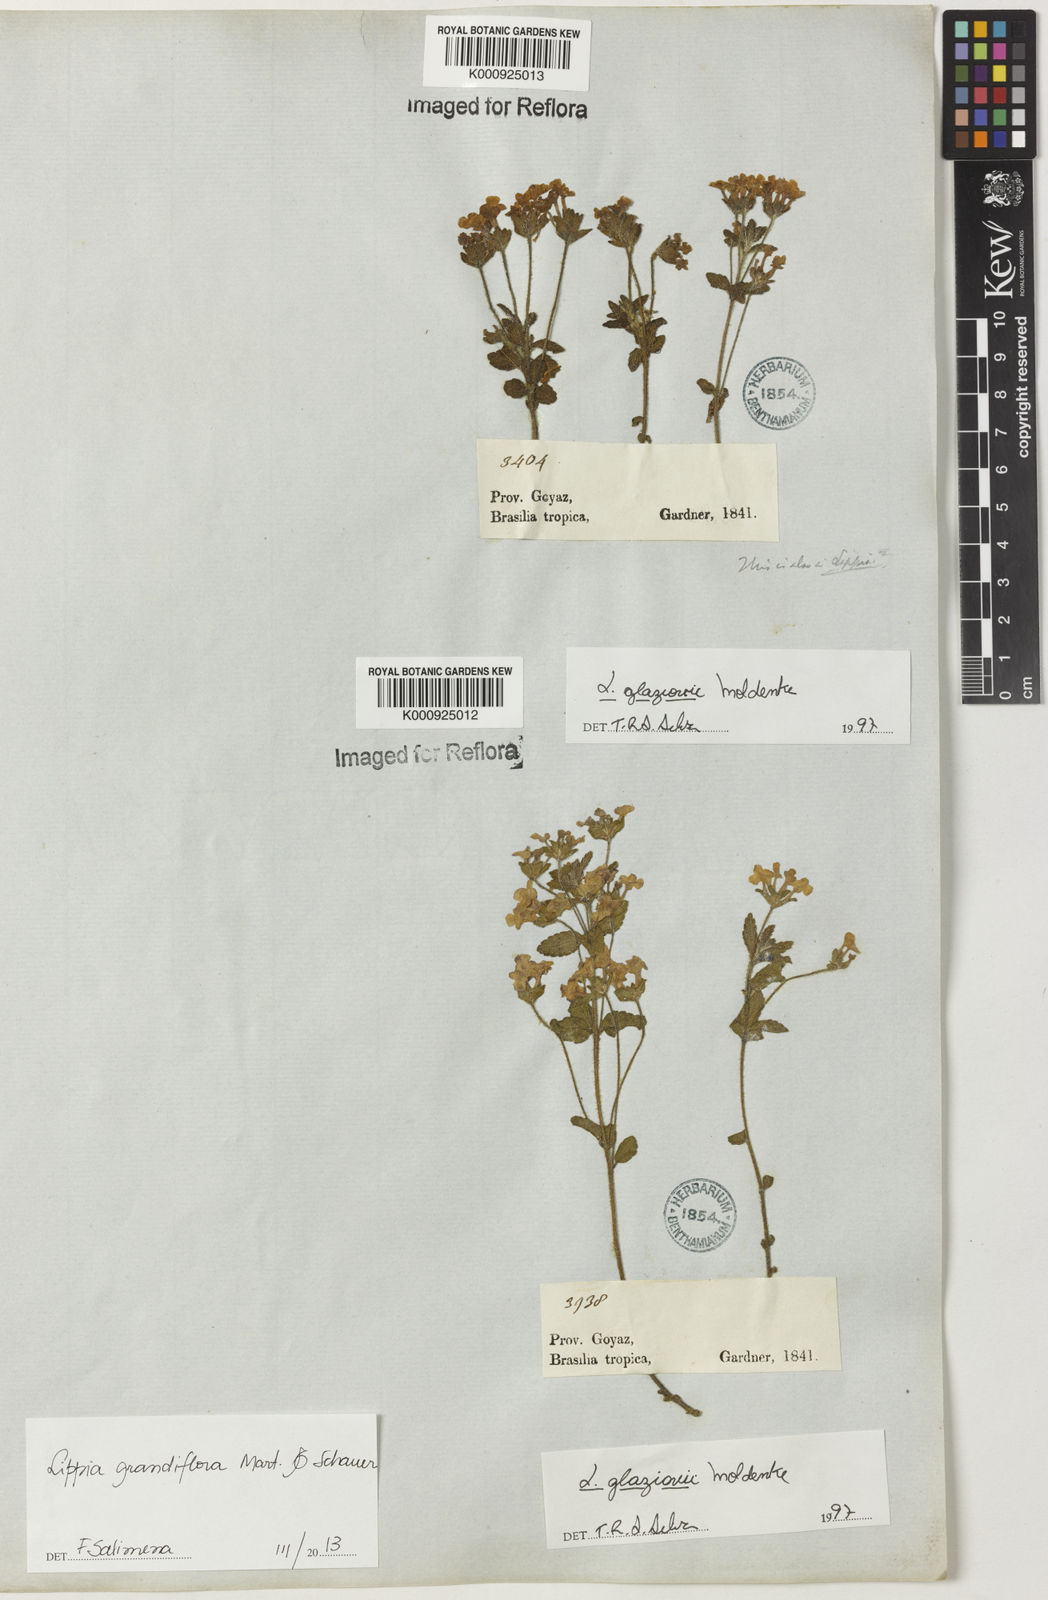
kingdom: Plantae
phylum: Tracheophyta
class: Magnoliopsida
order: Lamiales
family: Verbenaceae
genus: Lippia
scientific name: Lippia grandiflora
